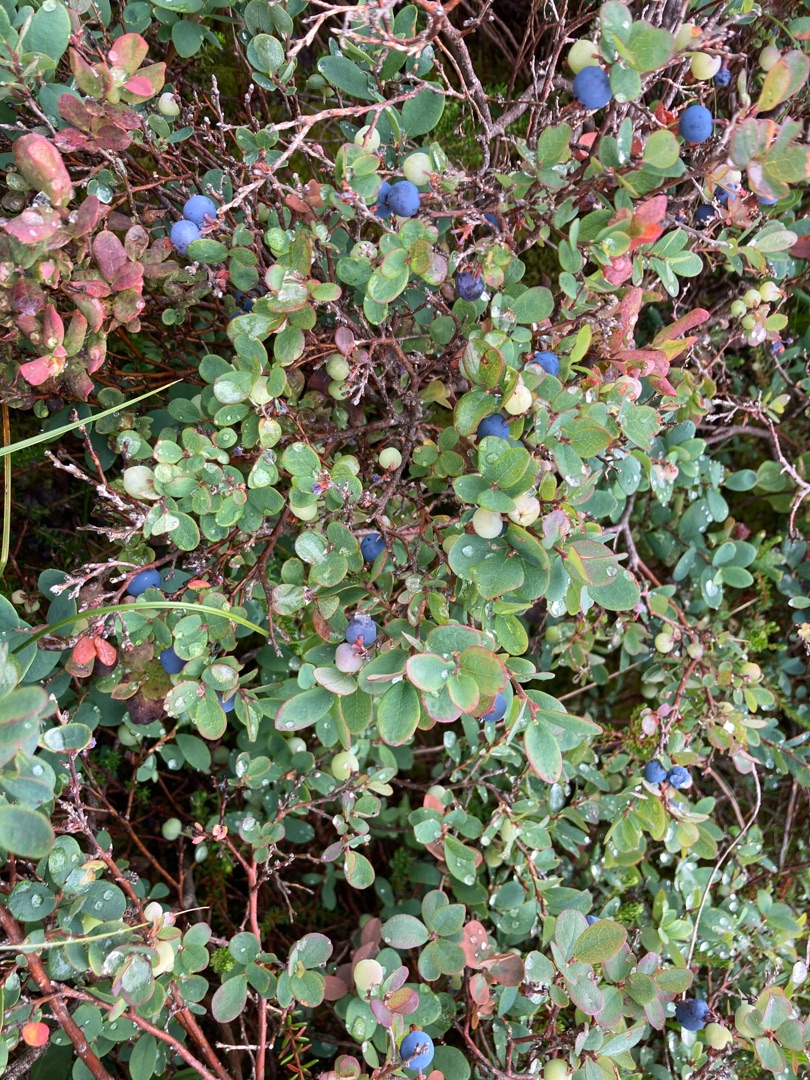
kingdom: Plantae
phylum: Tracheophyta
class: Magnoliopsida
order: Ericales
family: Ericaceae
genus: Vaccinium
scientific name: Vaccinium uliginosum
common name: Mose-bølle
